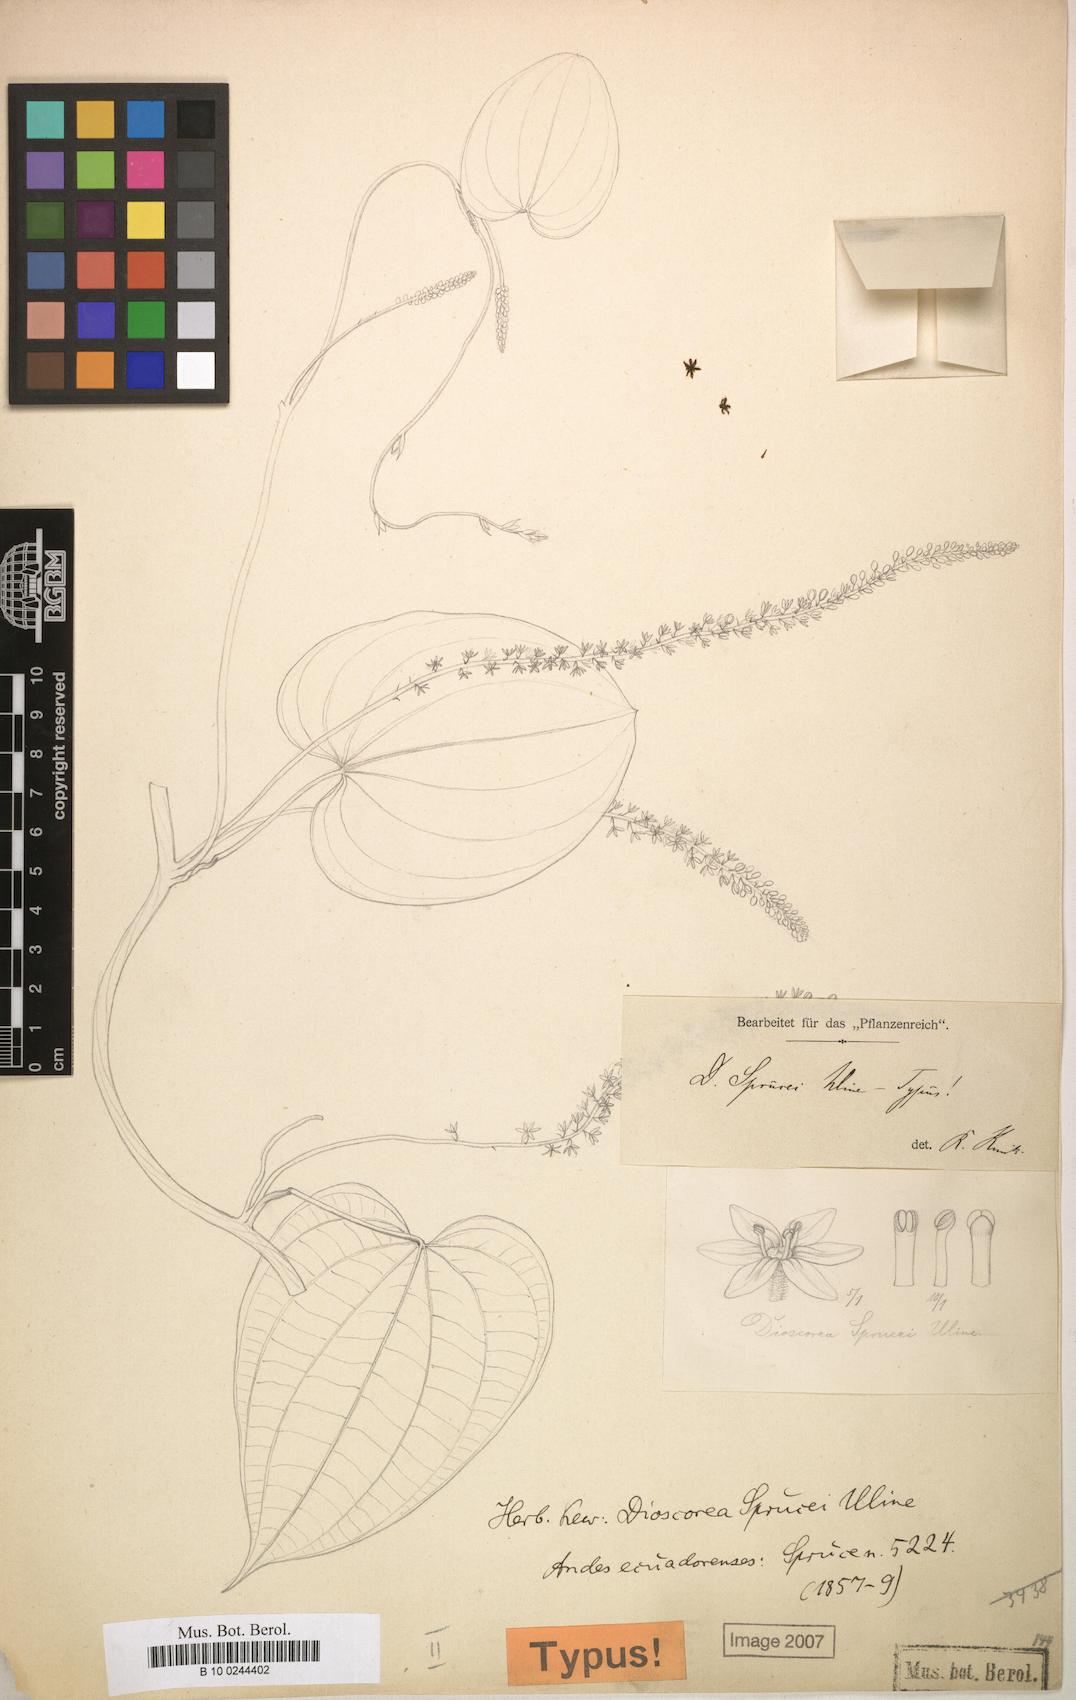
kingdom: Plantae
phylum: Tracheophyta
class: Liliopsida
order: Dioscoreales
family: Dioscoreaceae
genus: Dioscorea
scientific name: Dioscorea sprucei
